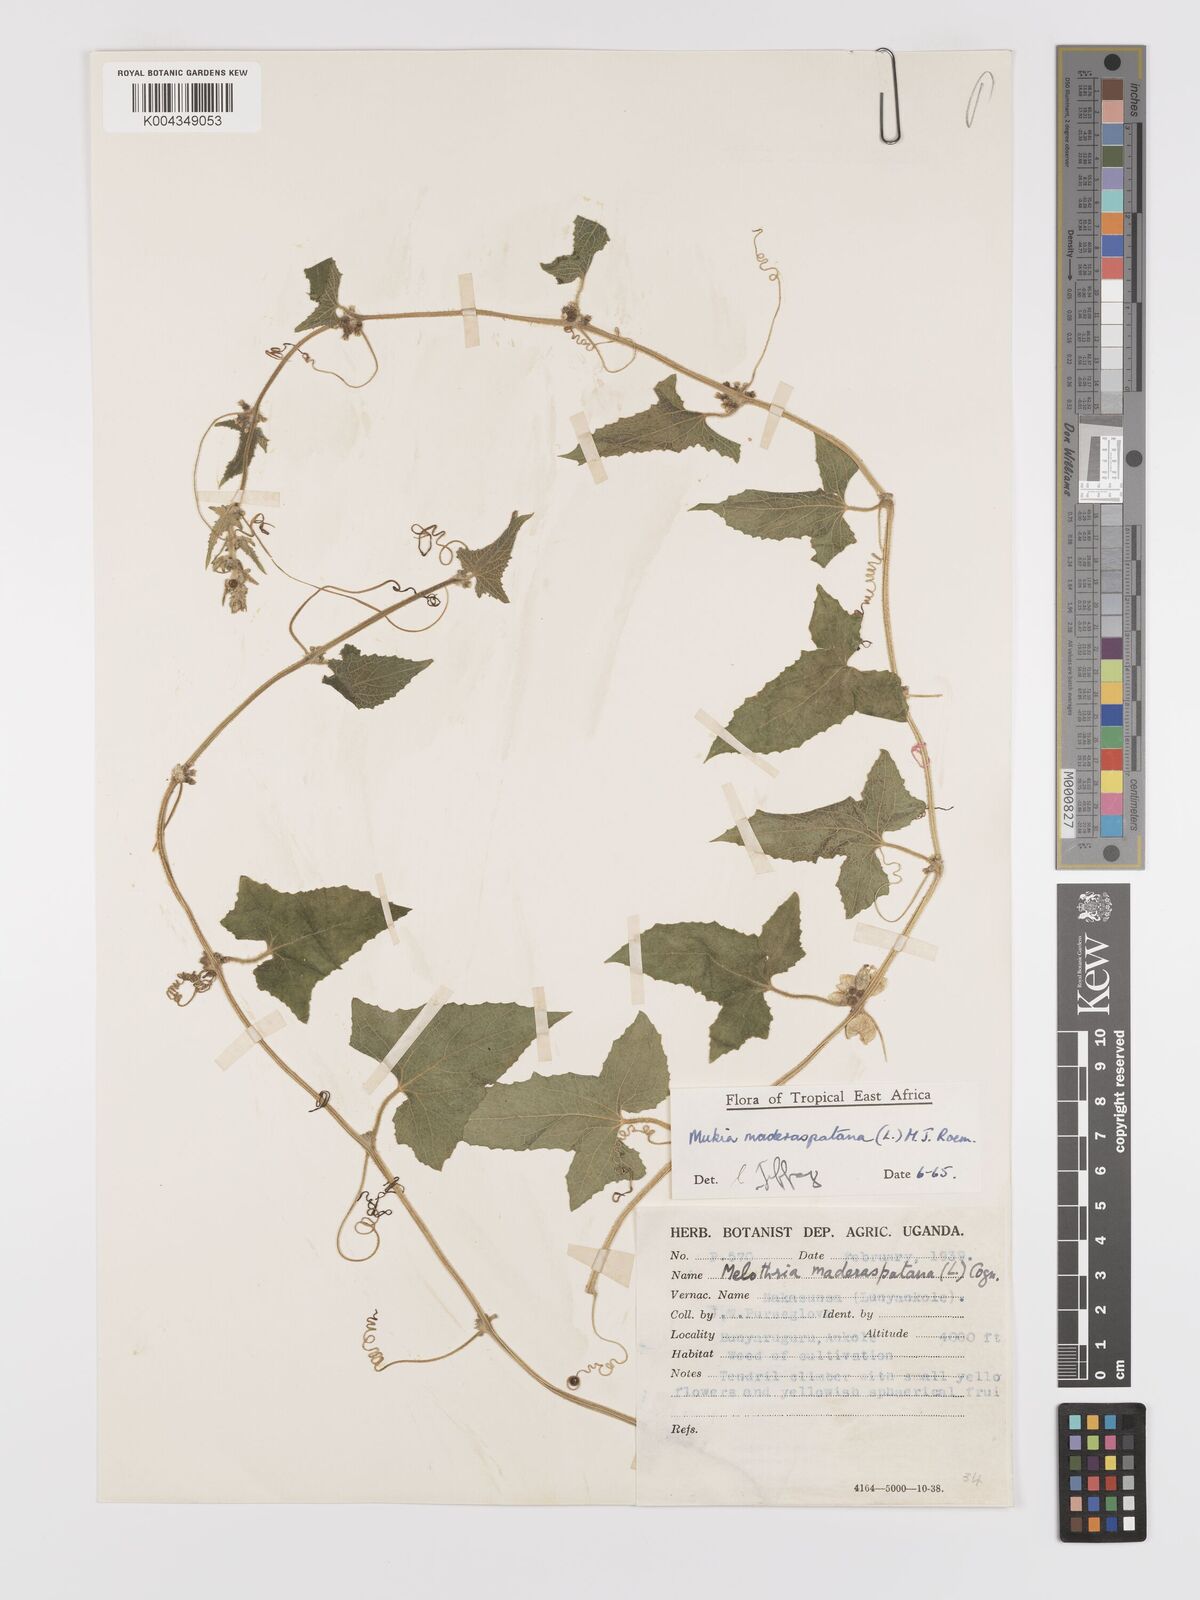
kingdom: Plantae
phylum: Tracheophyta
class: Magnoliopsida
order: Cucurbitales
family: Cucurbitaceae
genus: Cucumis
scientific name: Cucumis maderaspatanus
